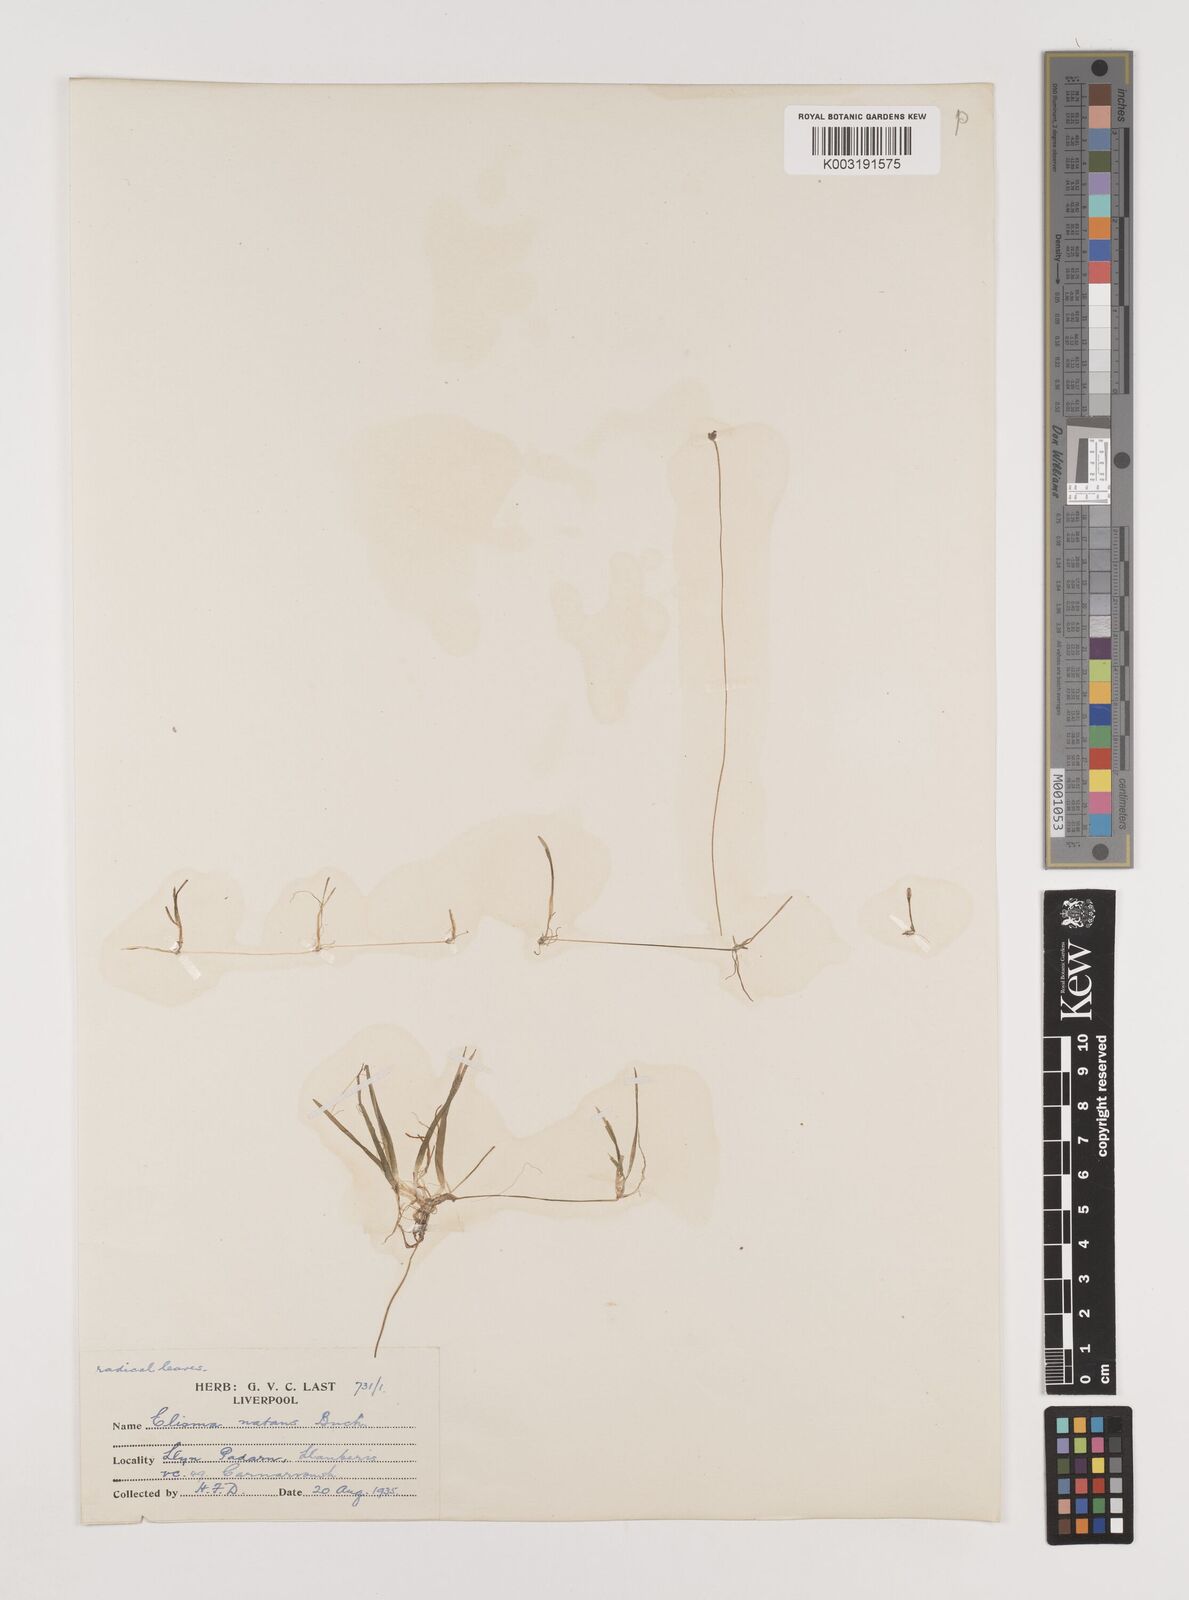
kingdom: Plantae
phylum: Tracheophyta
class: Liliopsida
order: Alismatales
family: Alismataceae
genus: Luronium
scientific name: Luronium natans
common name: Floating water-plantain
